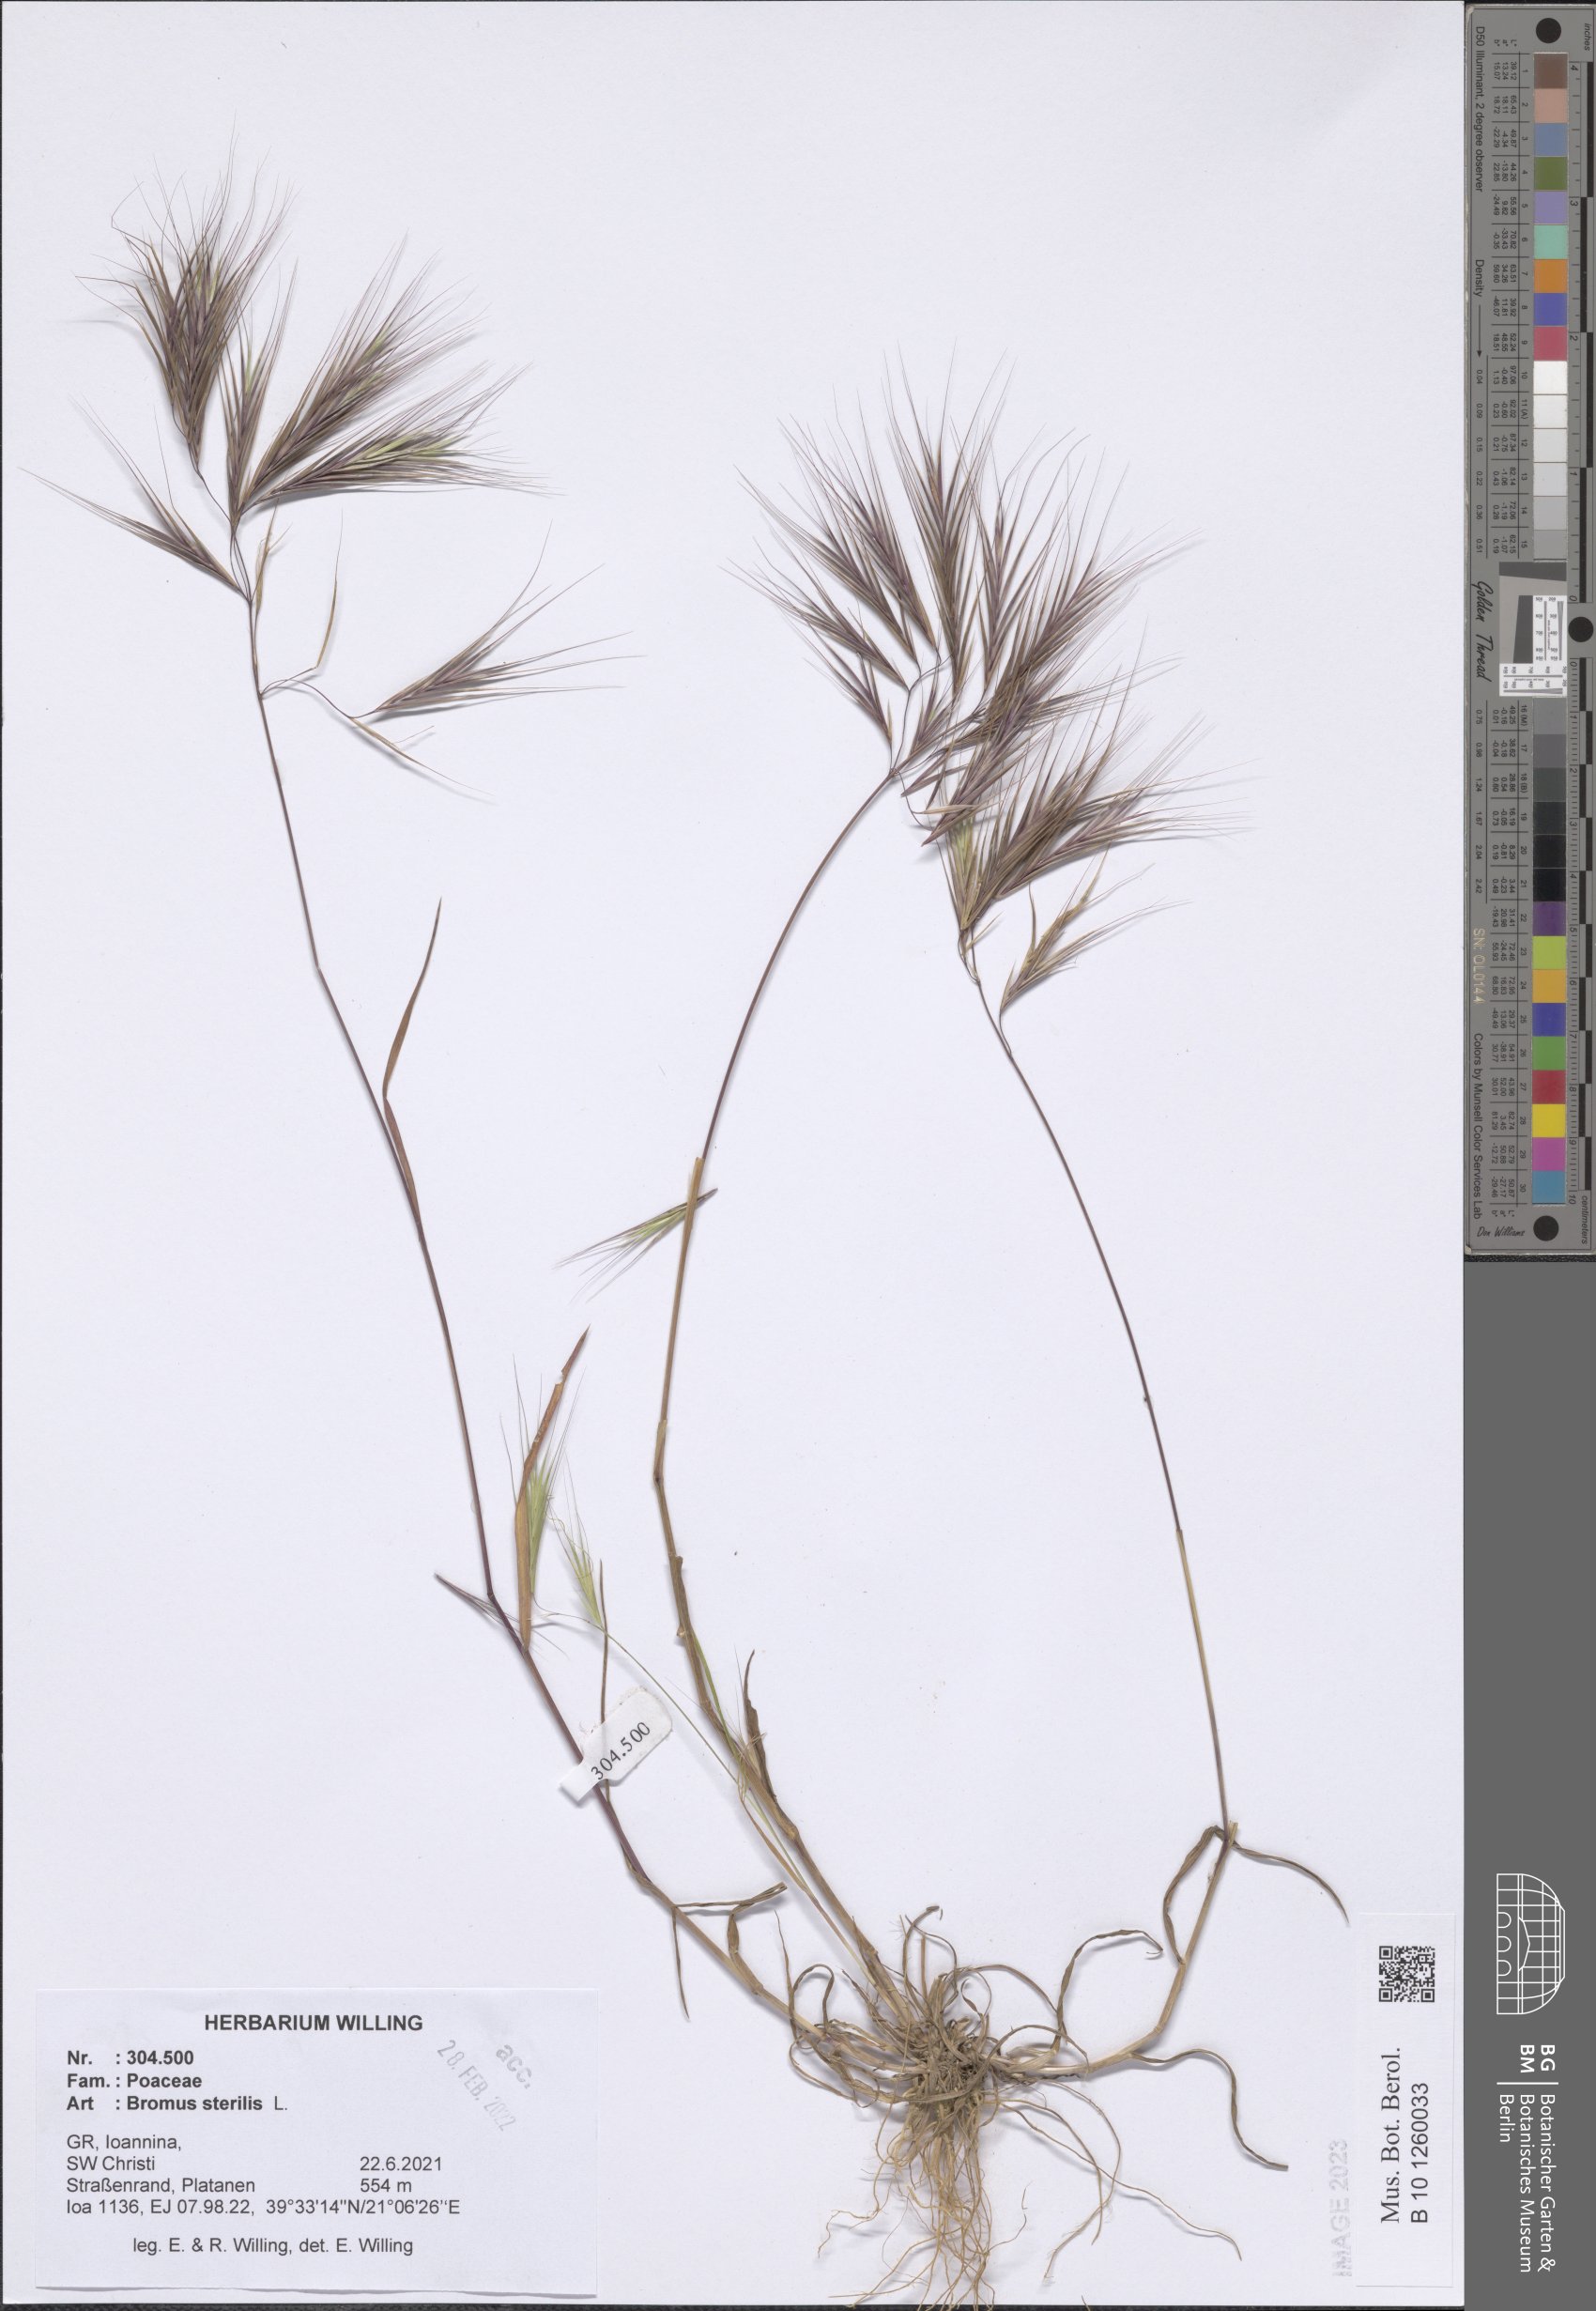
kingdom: Plantae
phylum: Tracheophyta
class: Liliopsida
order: Poales
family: Poaceae
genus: Bromus
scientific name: Bromus sterilis
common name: Poverty brome
